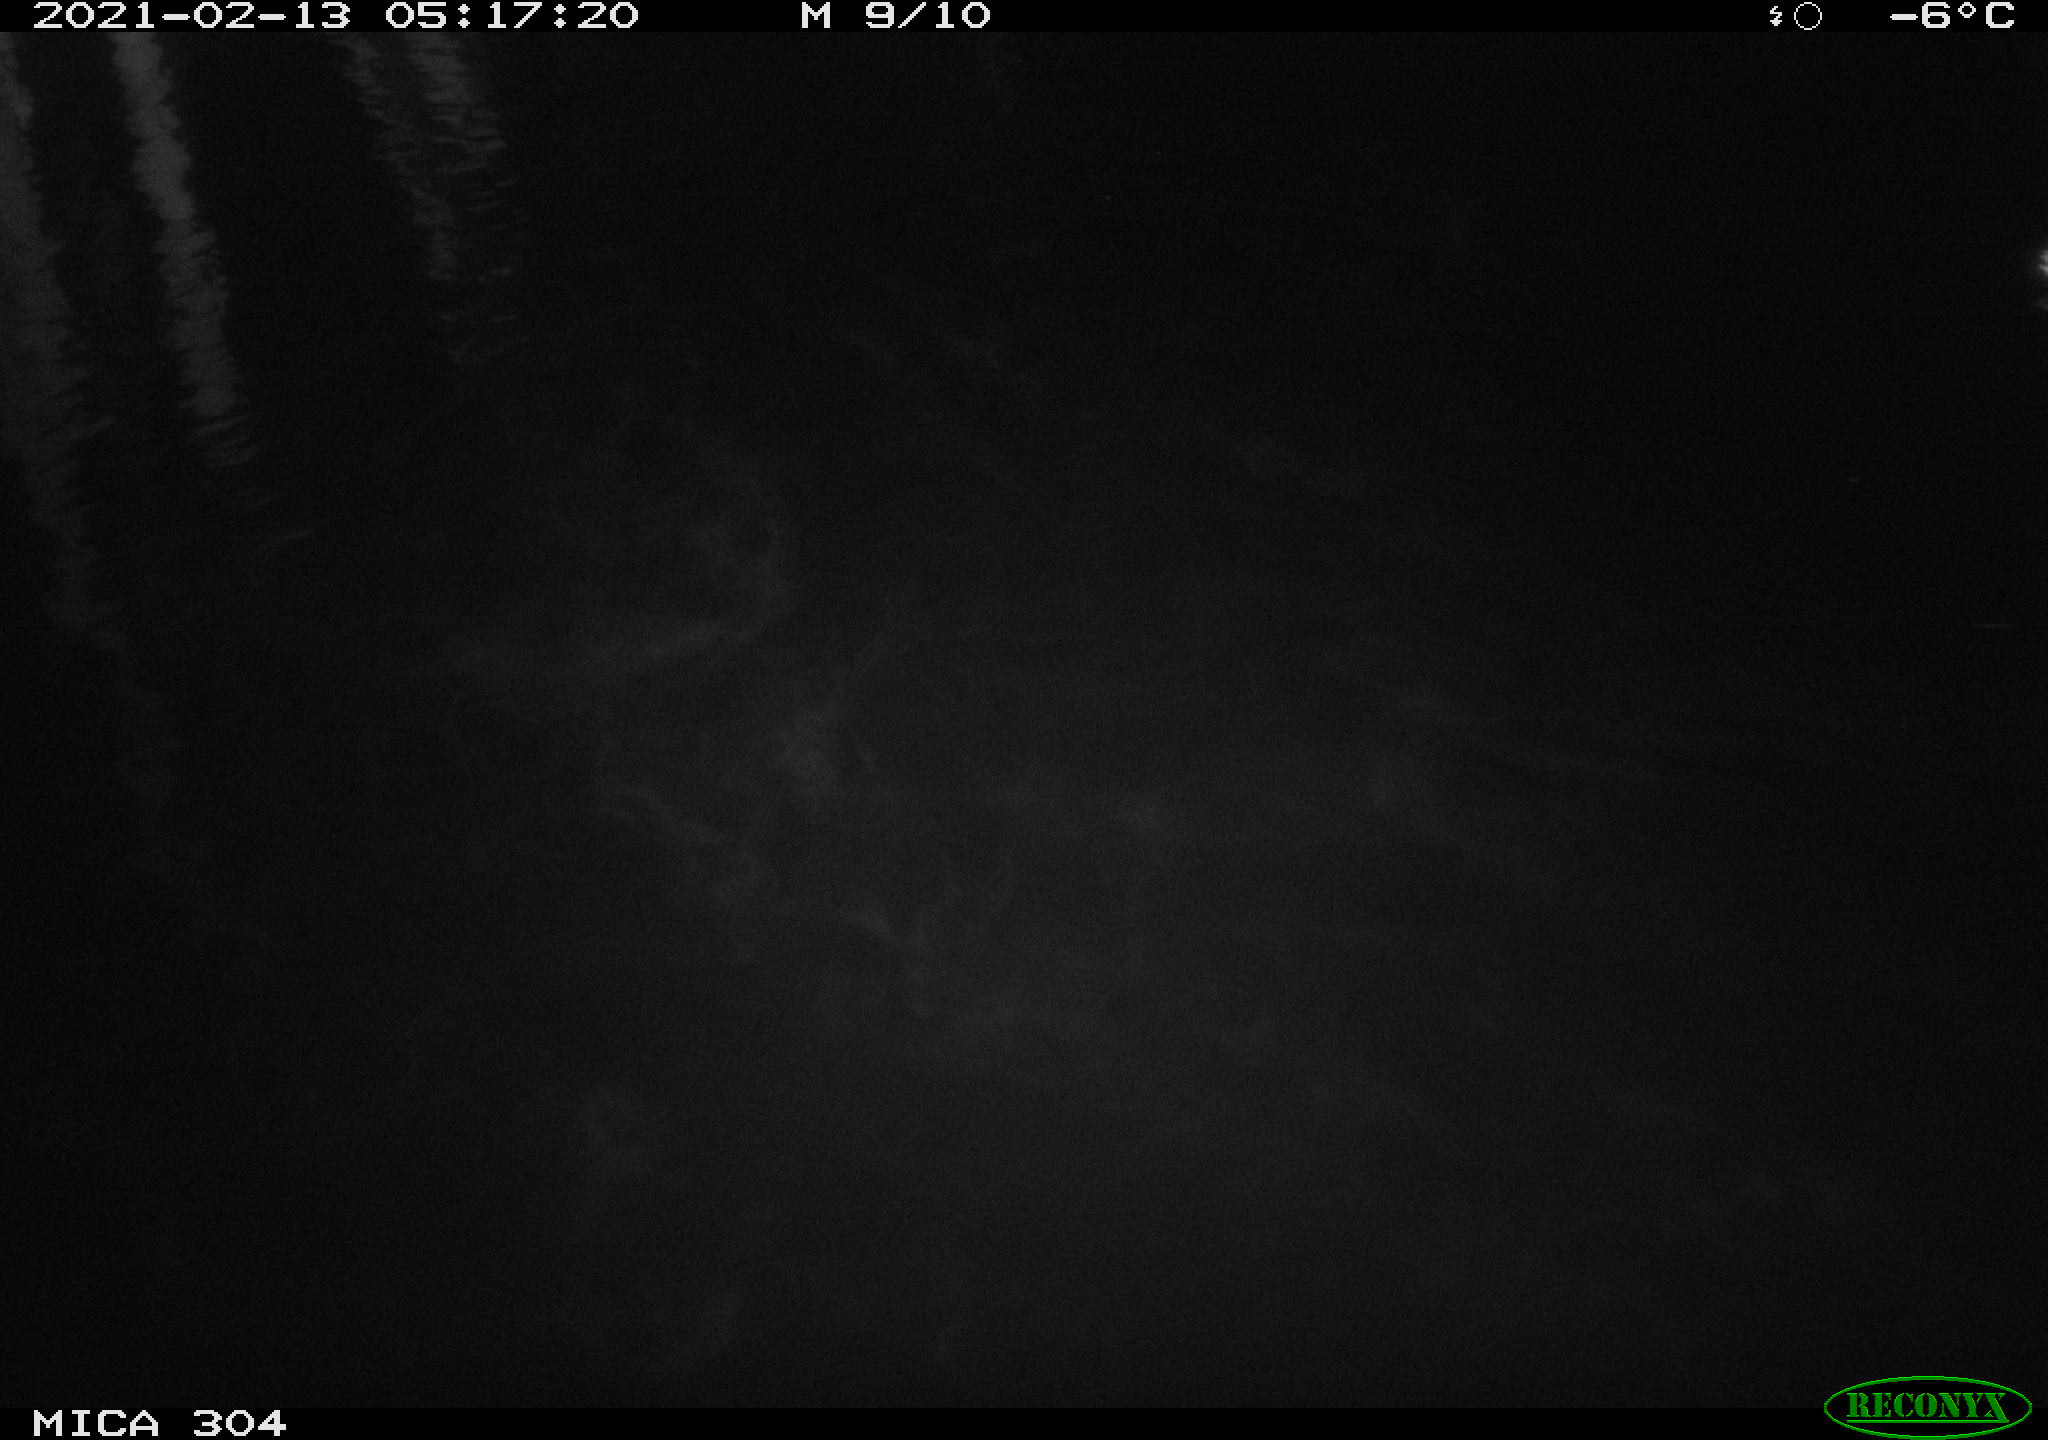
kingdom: Animalia
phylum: Chordata
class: Aves
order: Anseriformes
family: Anatidae
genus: Anas
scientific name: Anas platyrhynchos
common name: Mallard
